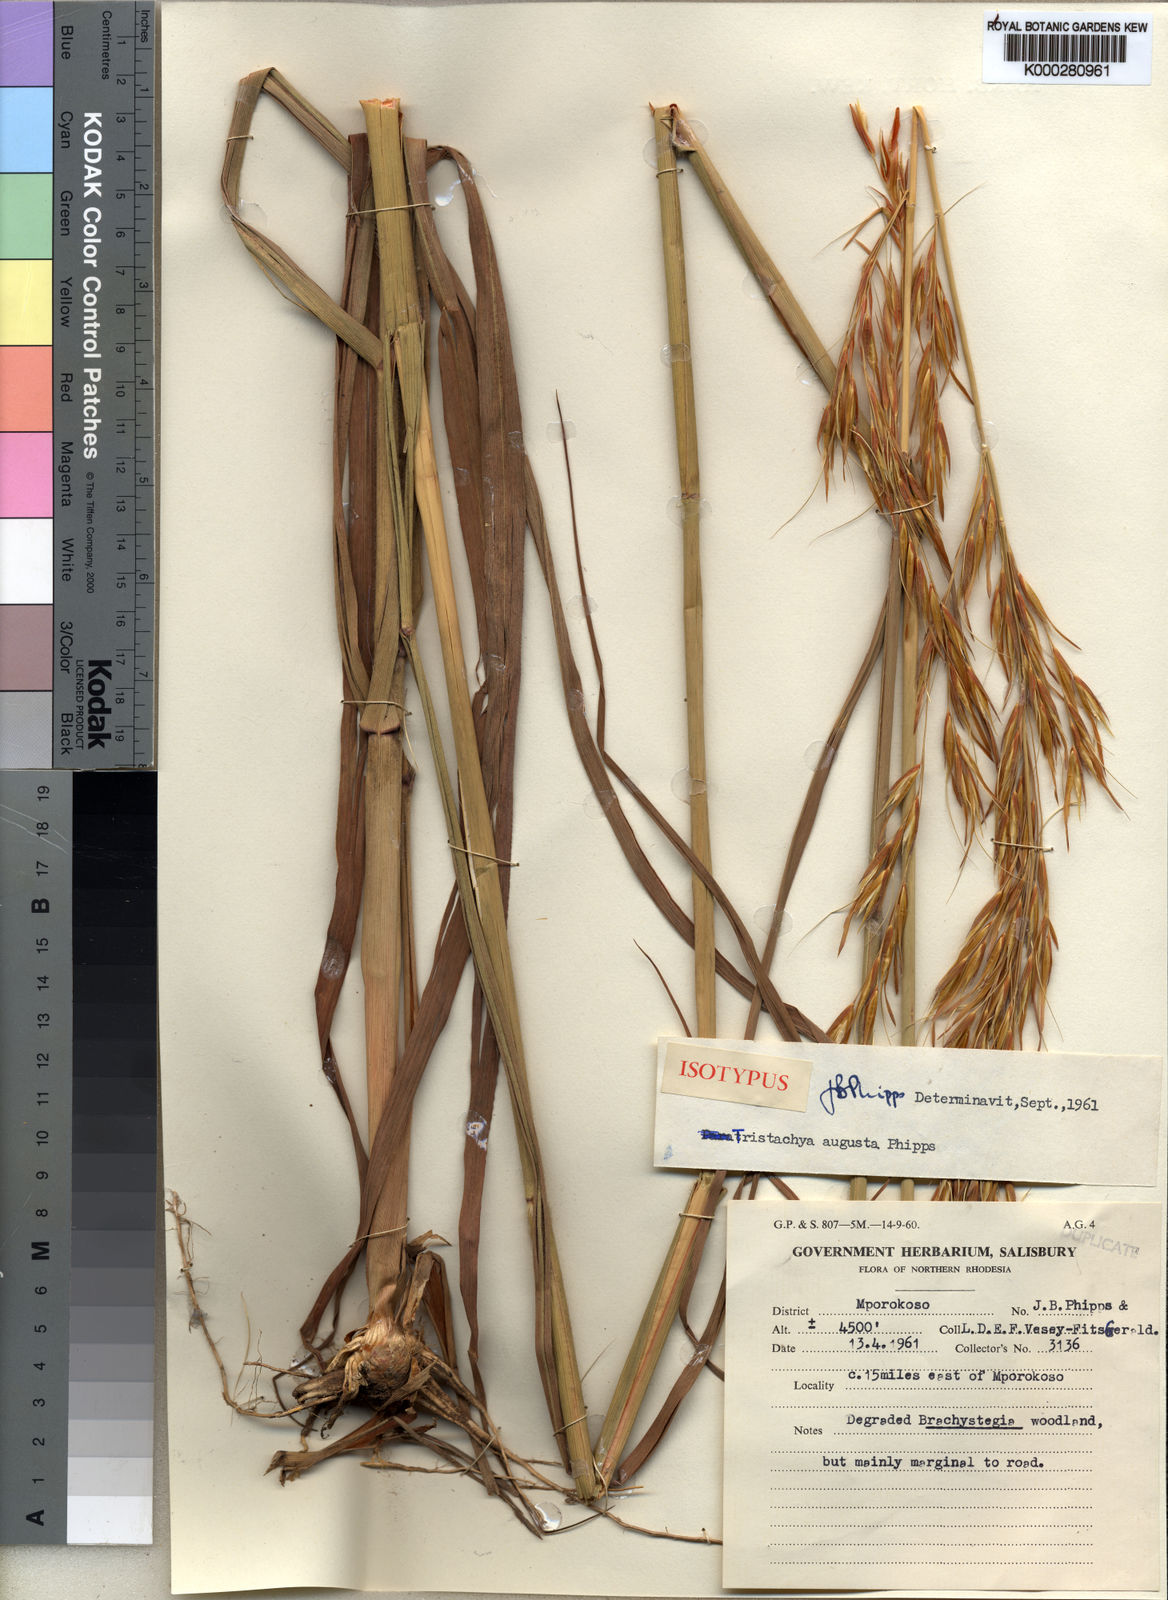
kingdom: Plantae
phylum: Tracheophyta
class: Liliopsida
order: Poales
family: Poaceae
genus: Tristachya
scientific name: Tristachya superba
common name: Giant trident grass
